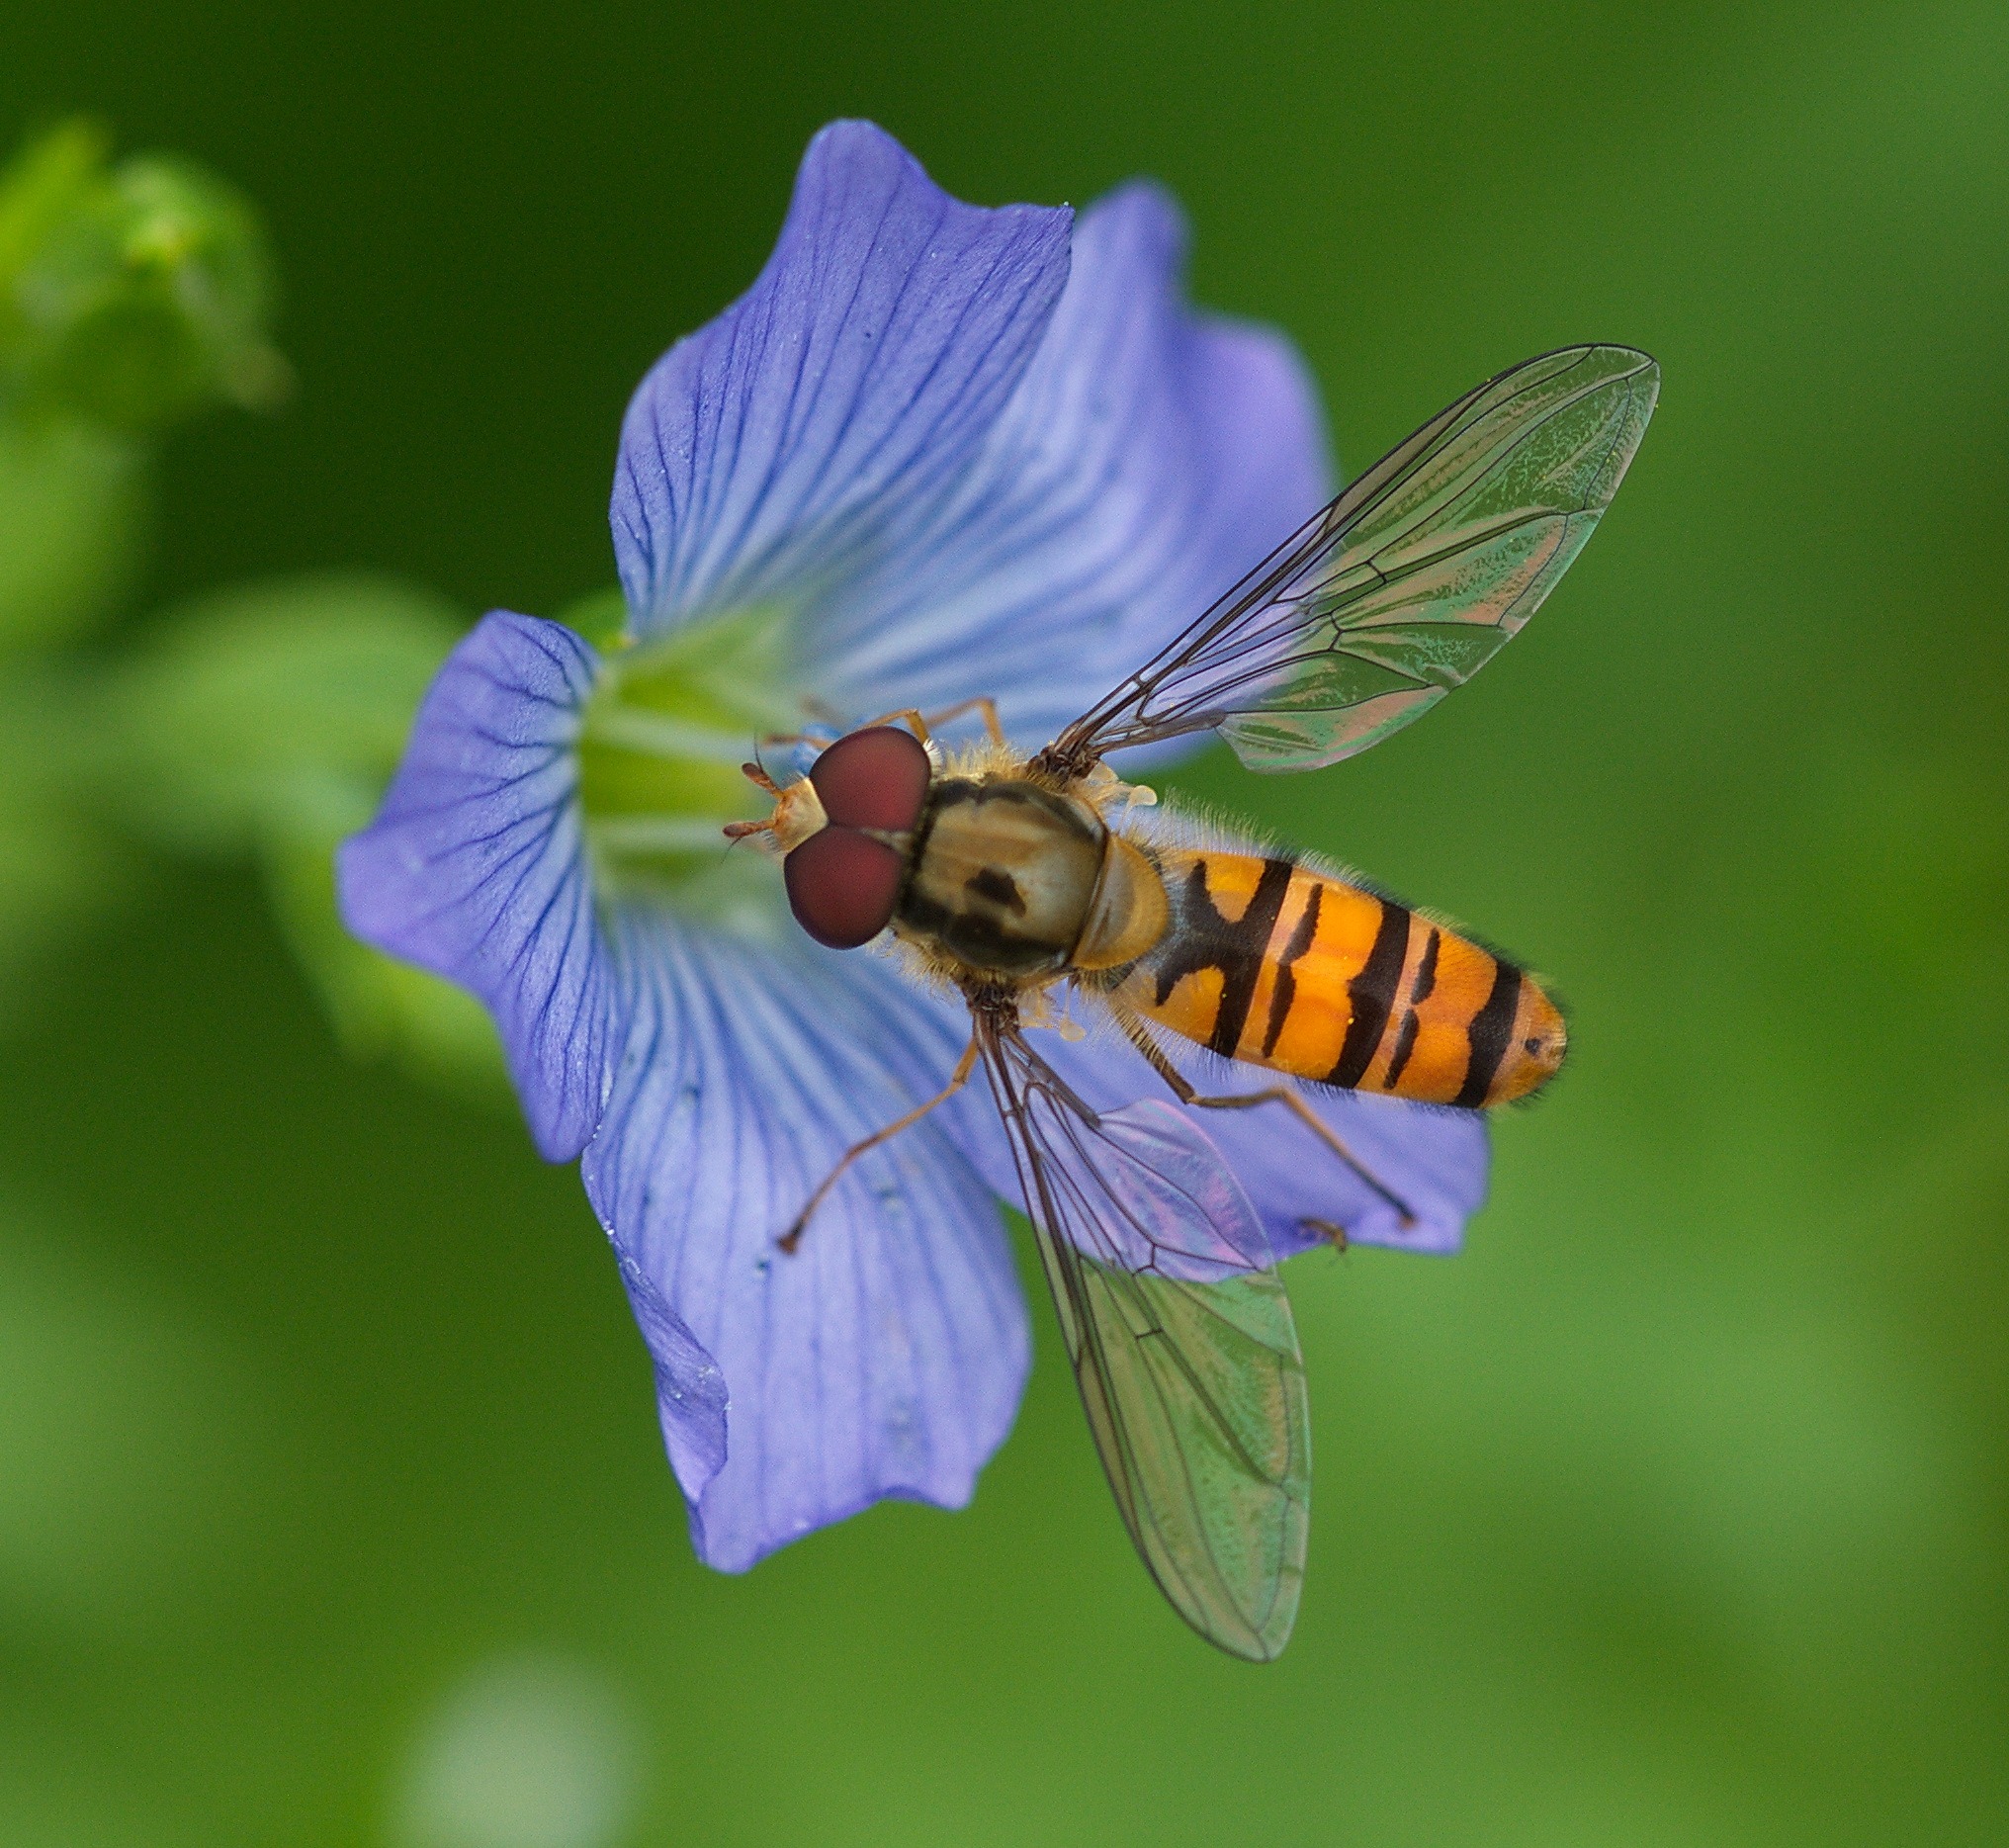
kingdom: Animalia
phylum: Arthropoda
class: Insecta
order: Diptera
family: Syrphidae
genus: Episyrphus
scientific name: Episyrphus balteatus
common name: Dobbeltbåndet svirreflue
